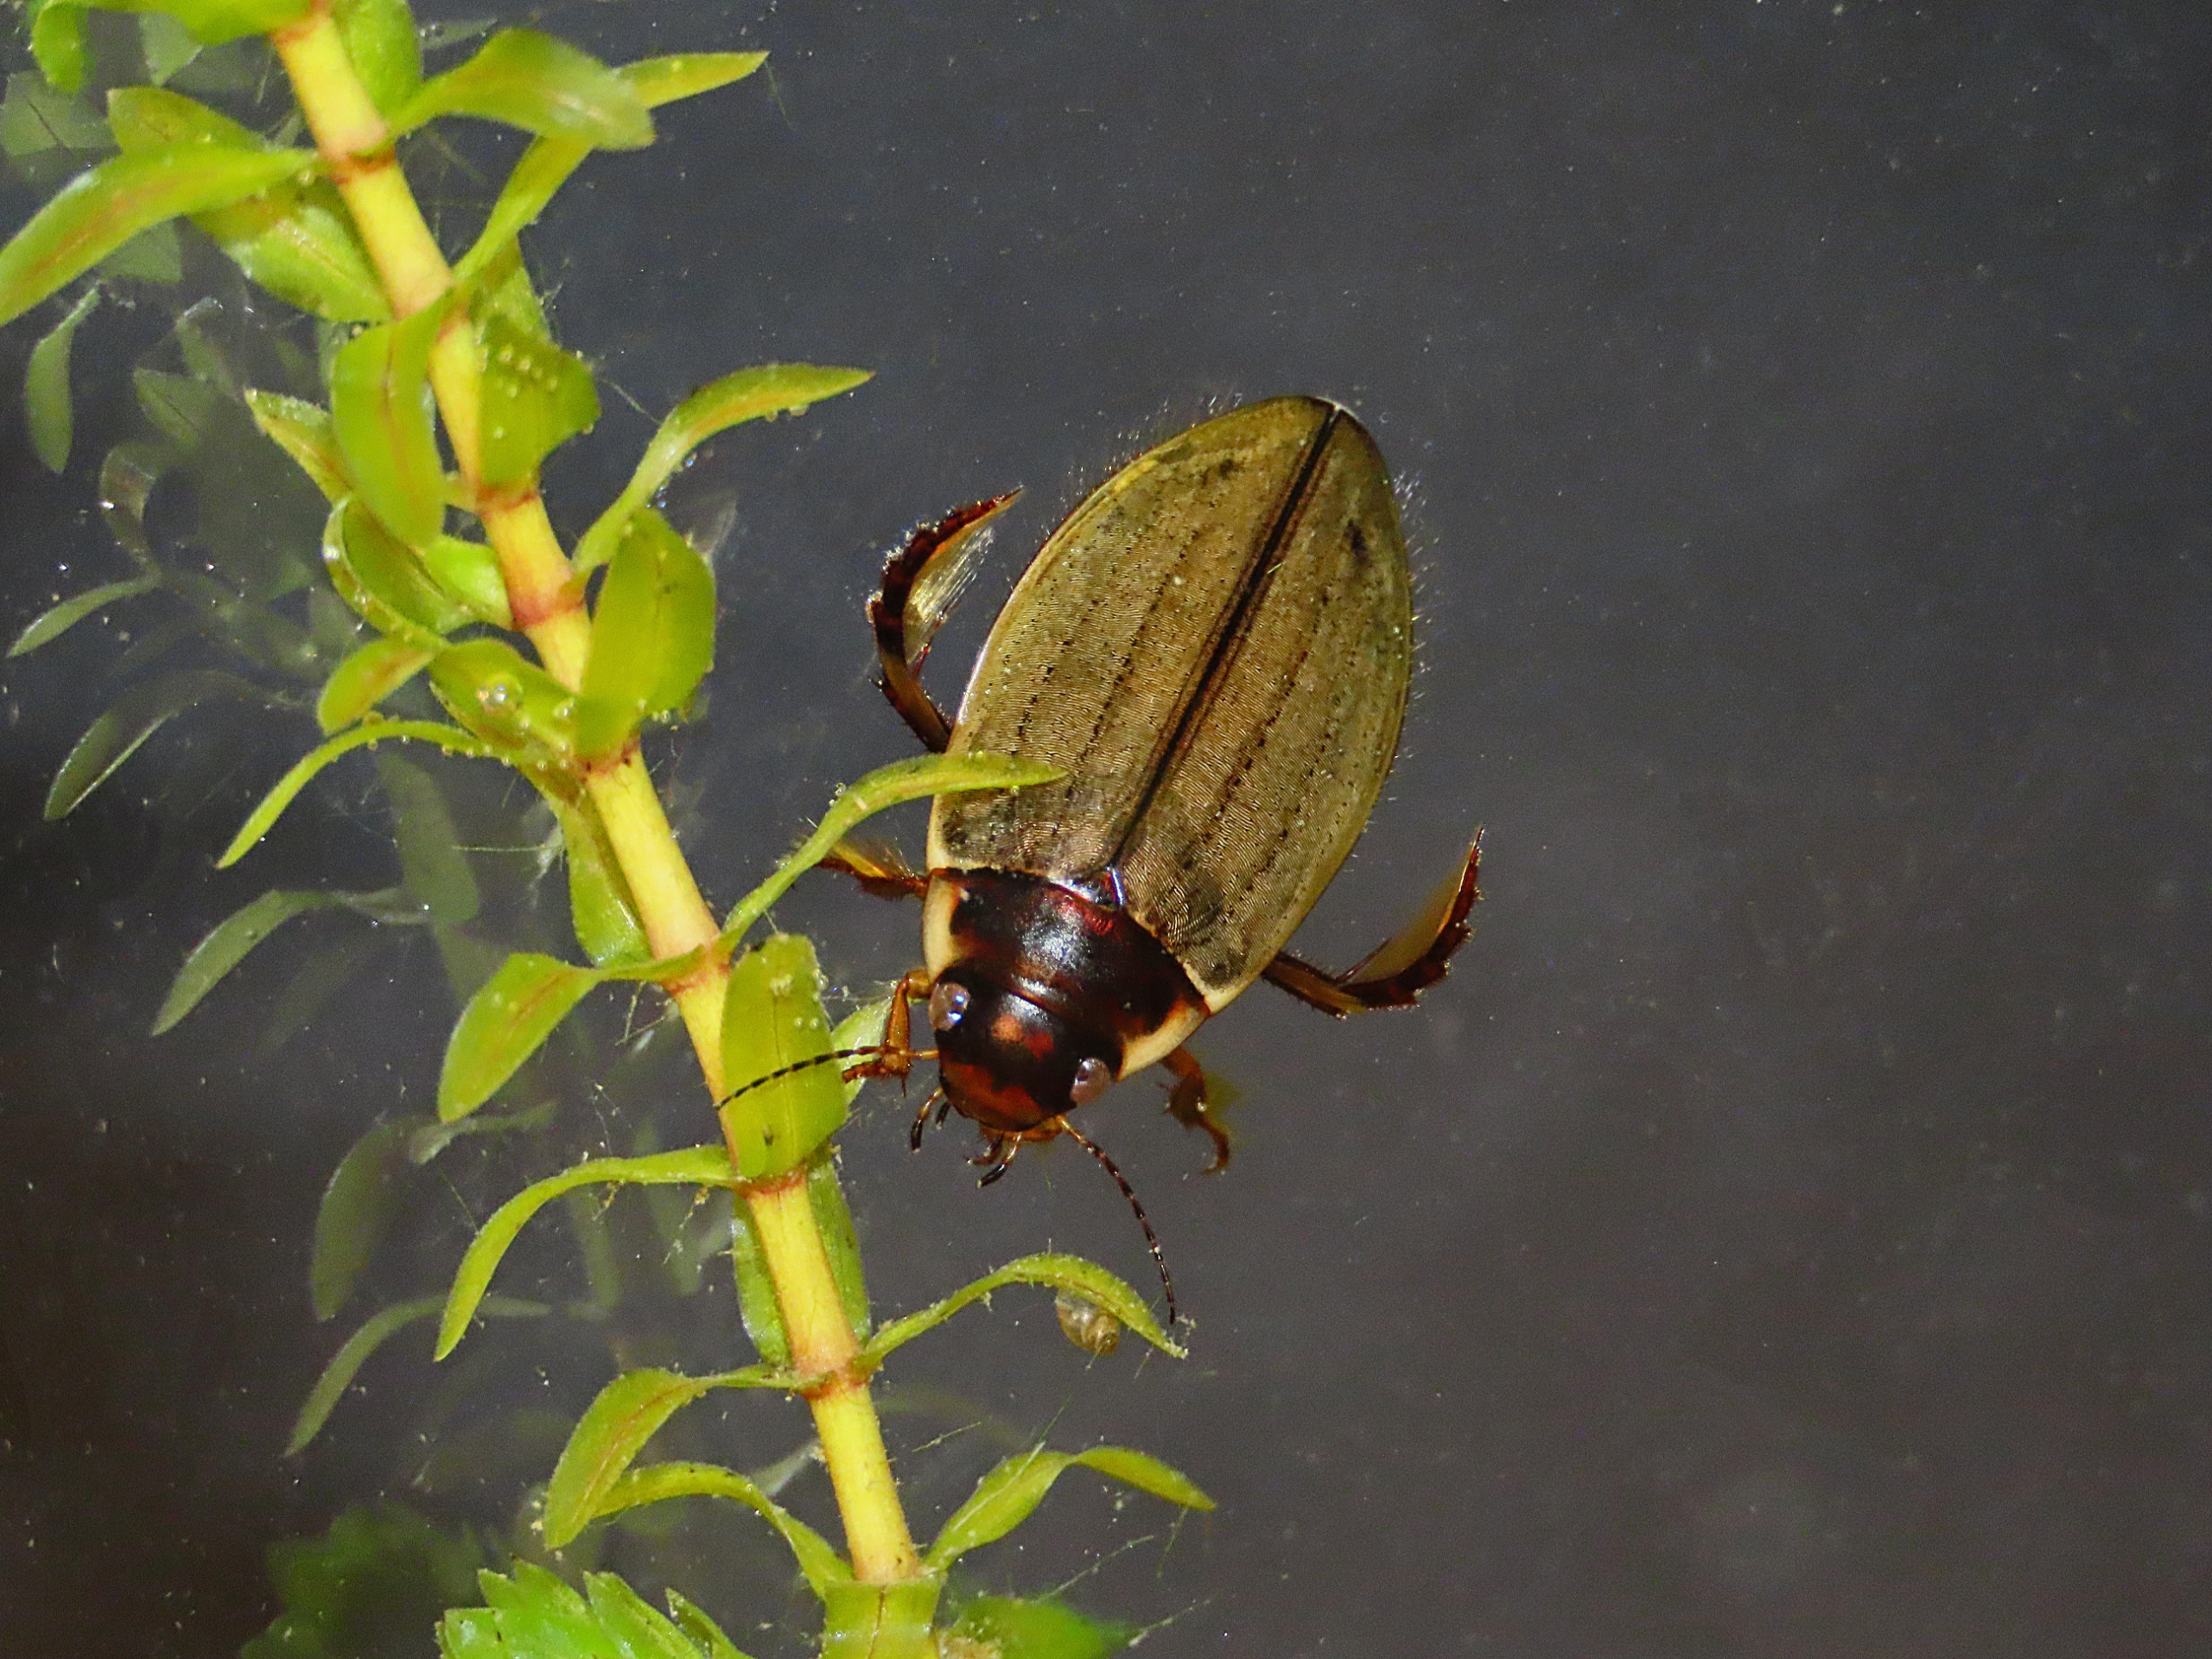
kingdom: Animalia
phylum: Arthropoda
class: Insecta
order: Coleoptera
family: Dytiscidae
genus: Colymbetes
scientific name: Colymbetes fuscus
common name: Tværridset vandkalv
